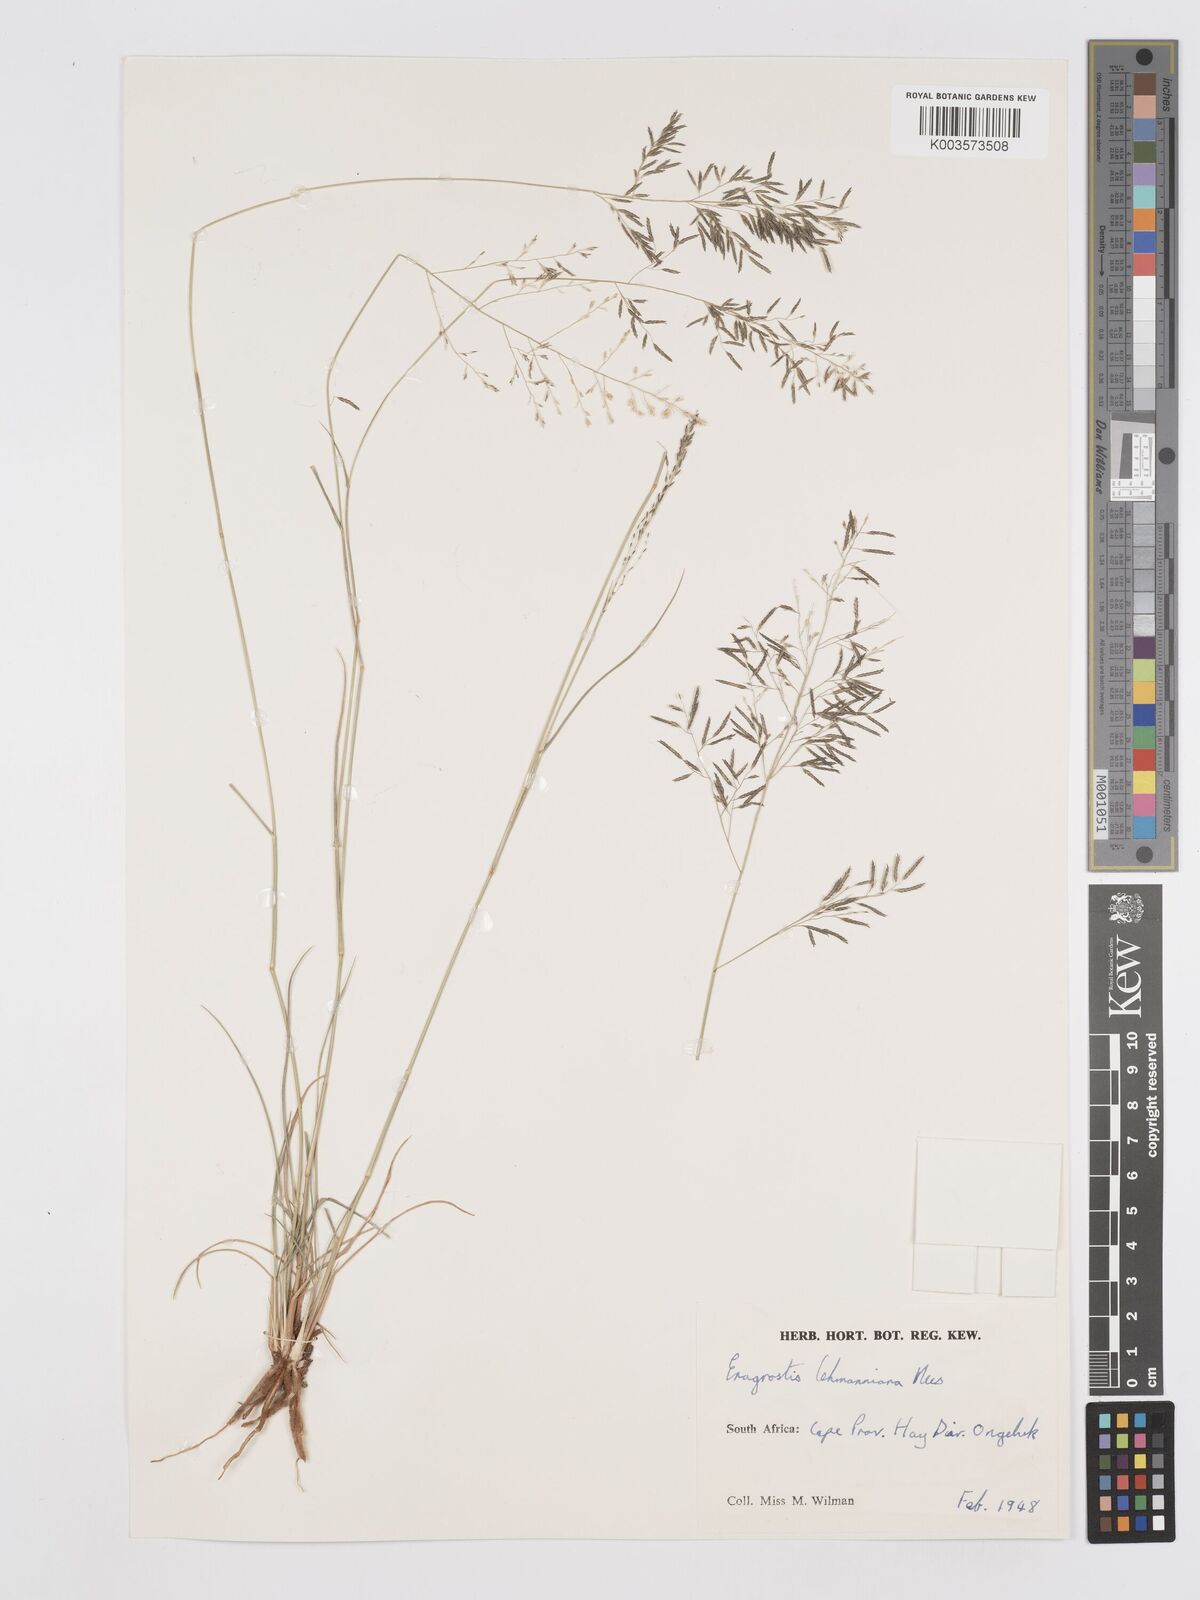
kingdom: Plantae
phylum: Tracheophyta
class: Liliopsida
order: Poales
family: Poaceae
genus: Eragrostis
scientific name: Eragrostis lehmanniana
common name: Lehmann lovegrass
